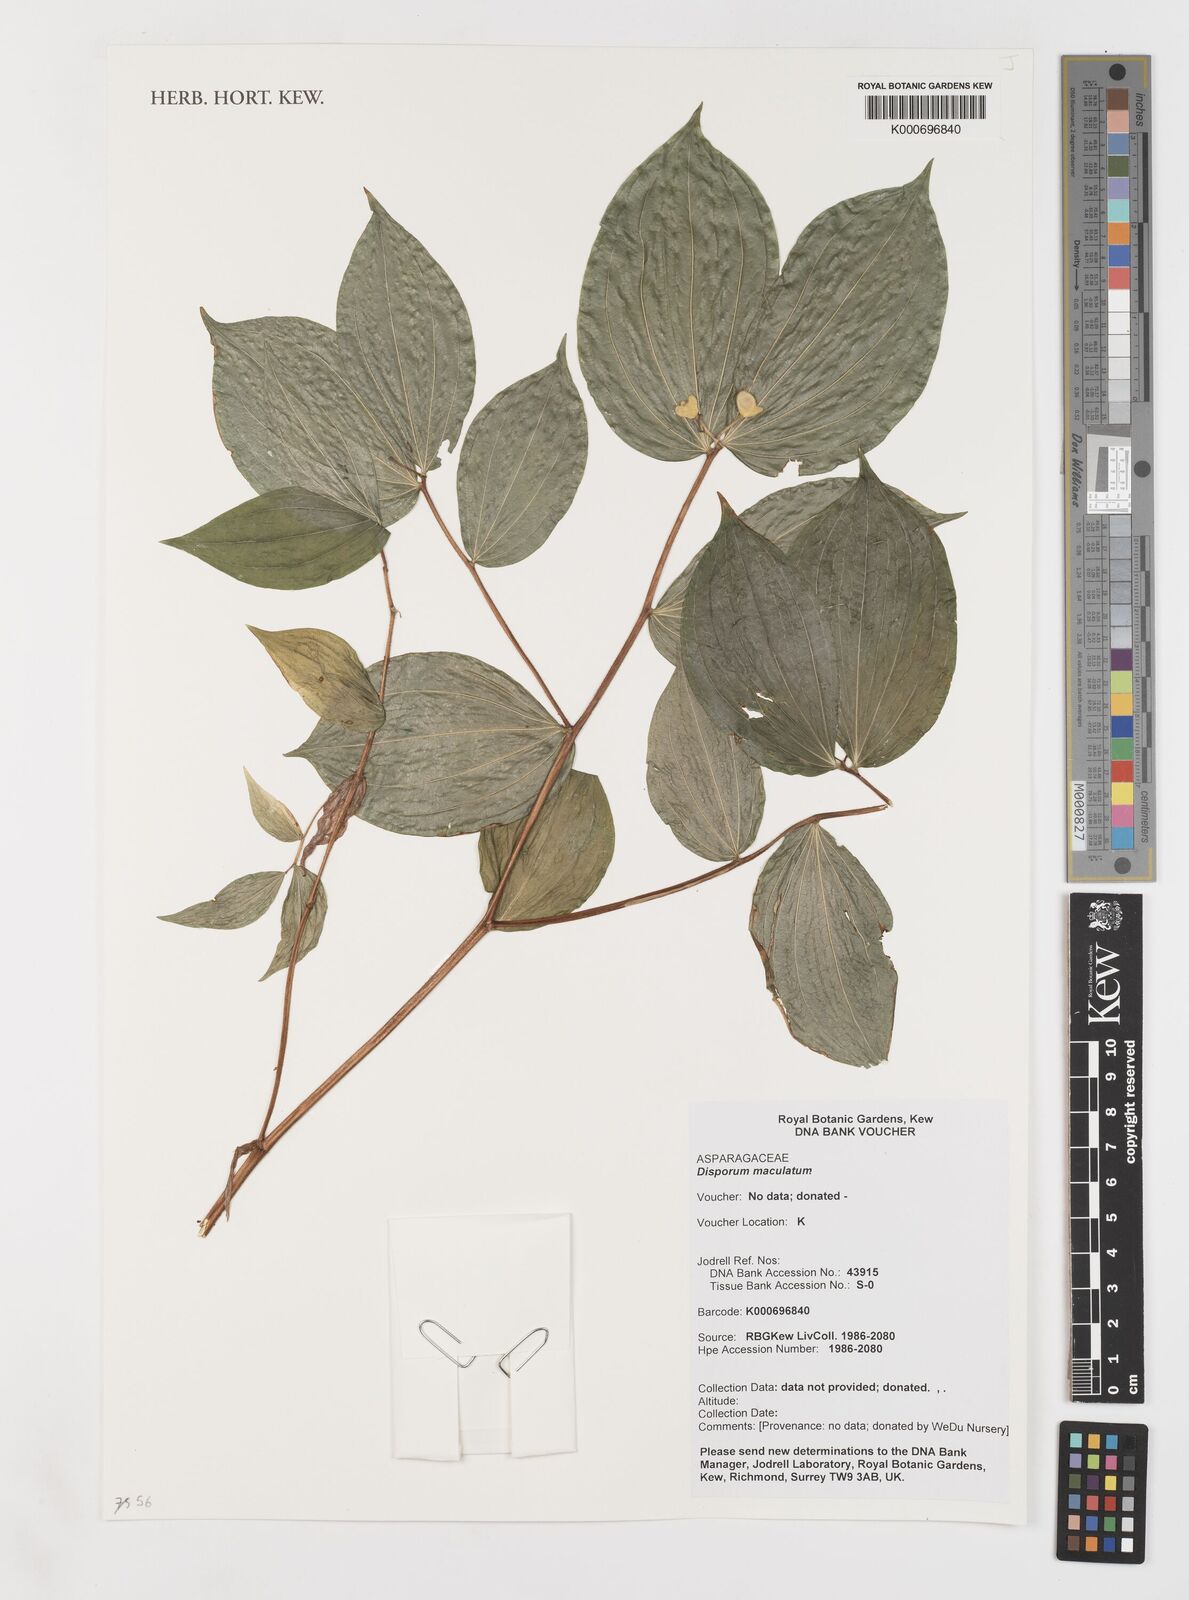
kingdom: Plantae
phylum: Tracheophyta
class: Liliopsida
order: Liliales
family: Liliaceae
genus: Prosartes
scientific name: Prosartes maculata
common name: Yellow mandarin
